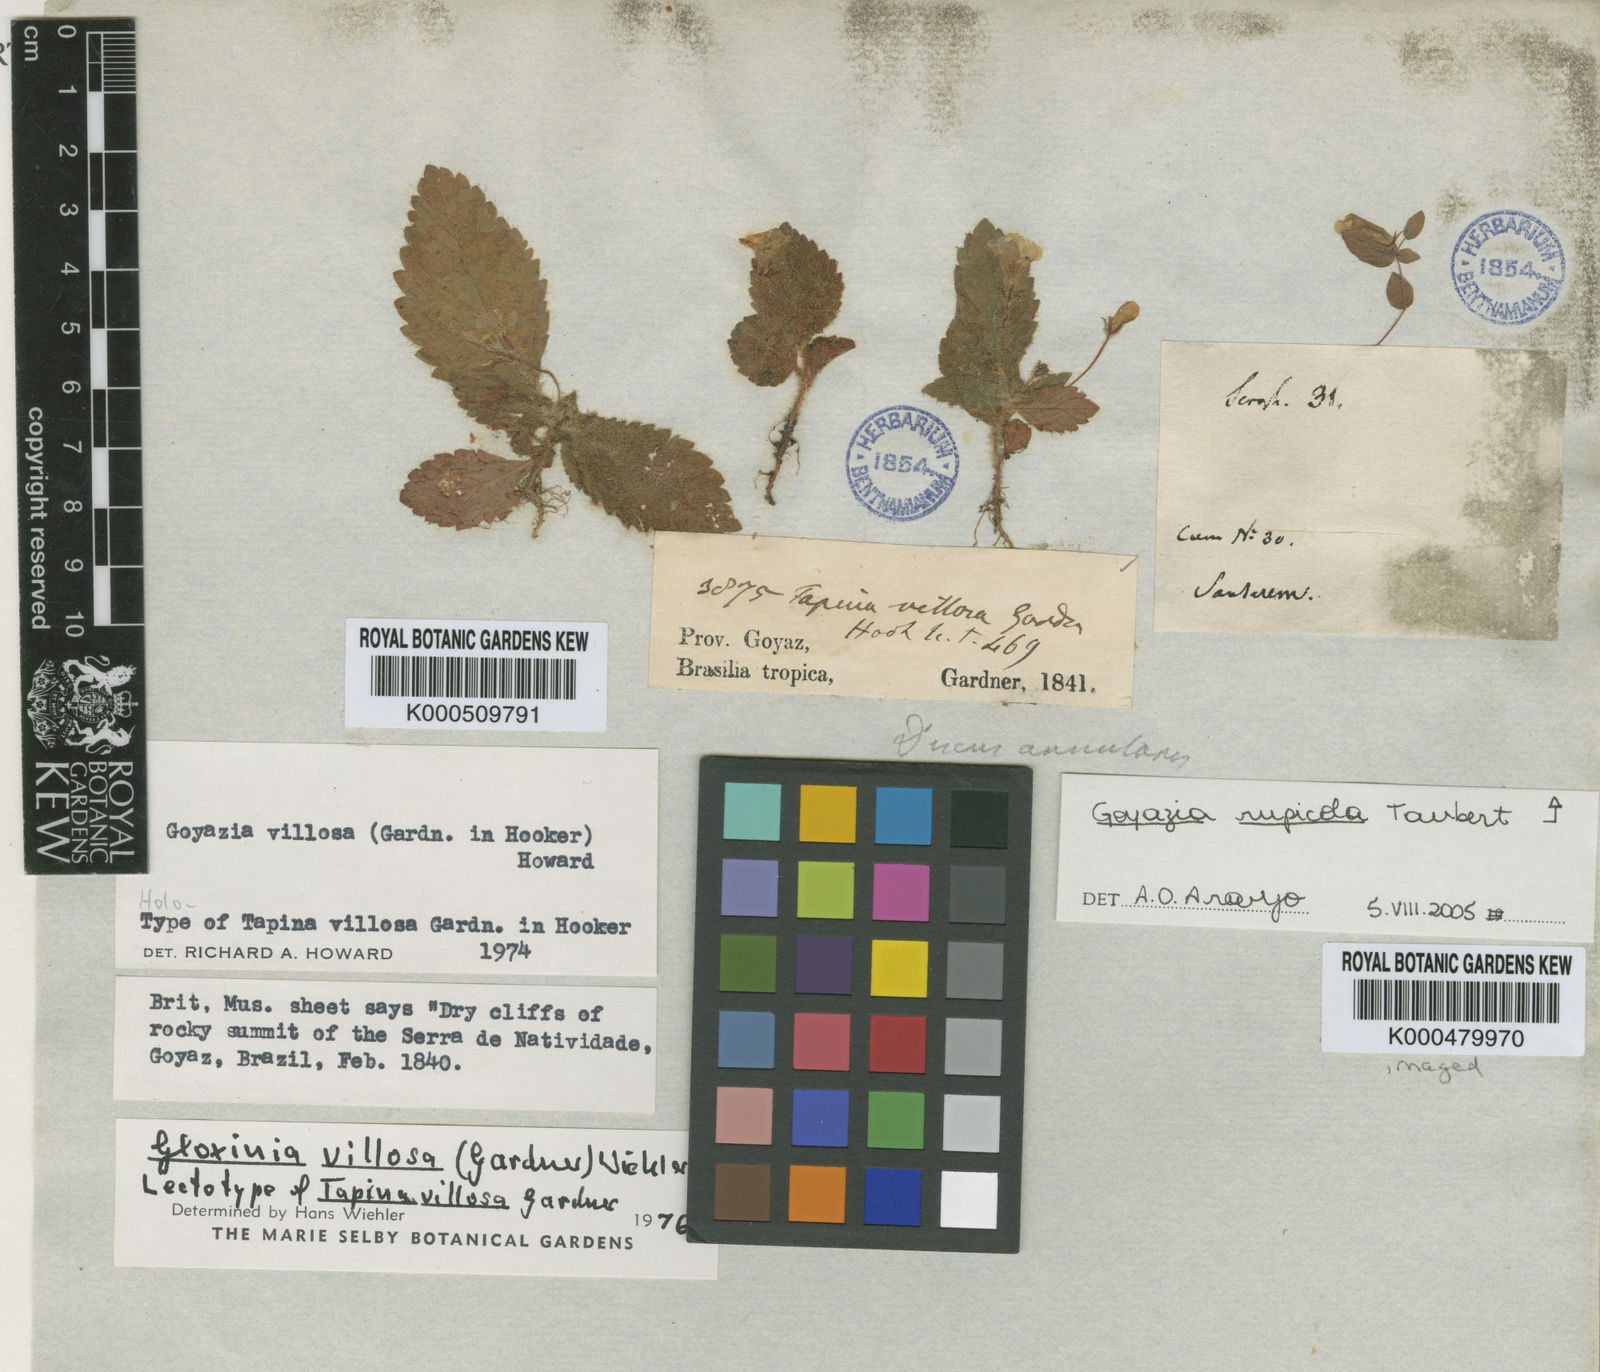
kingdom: Plantae
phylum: Tracheophyta
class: Magnoliopsida
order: Lamiales
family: Gesneriaceae
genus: Goyazia
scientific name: Goyazia villosa
